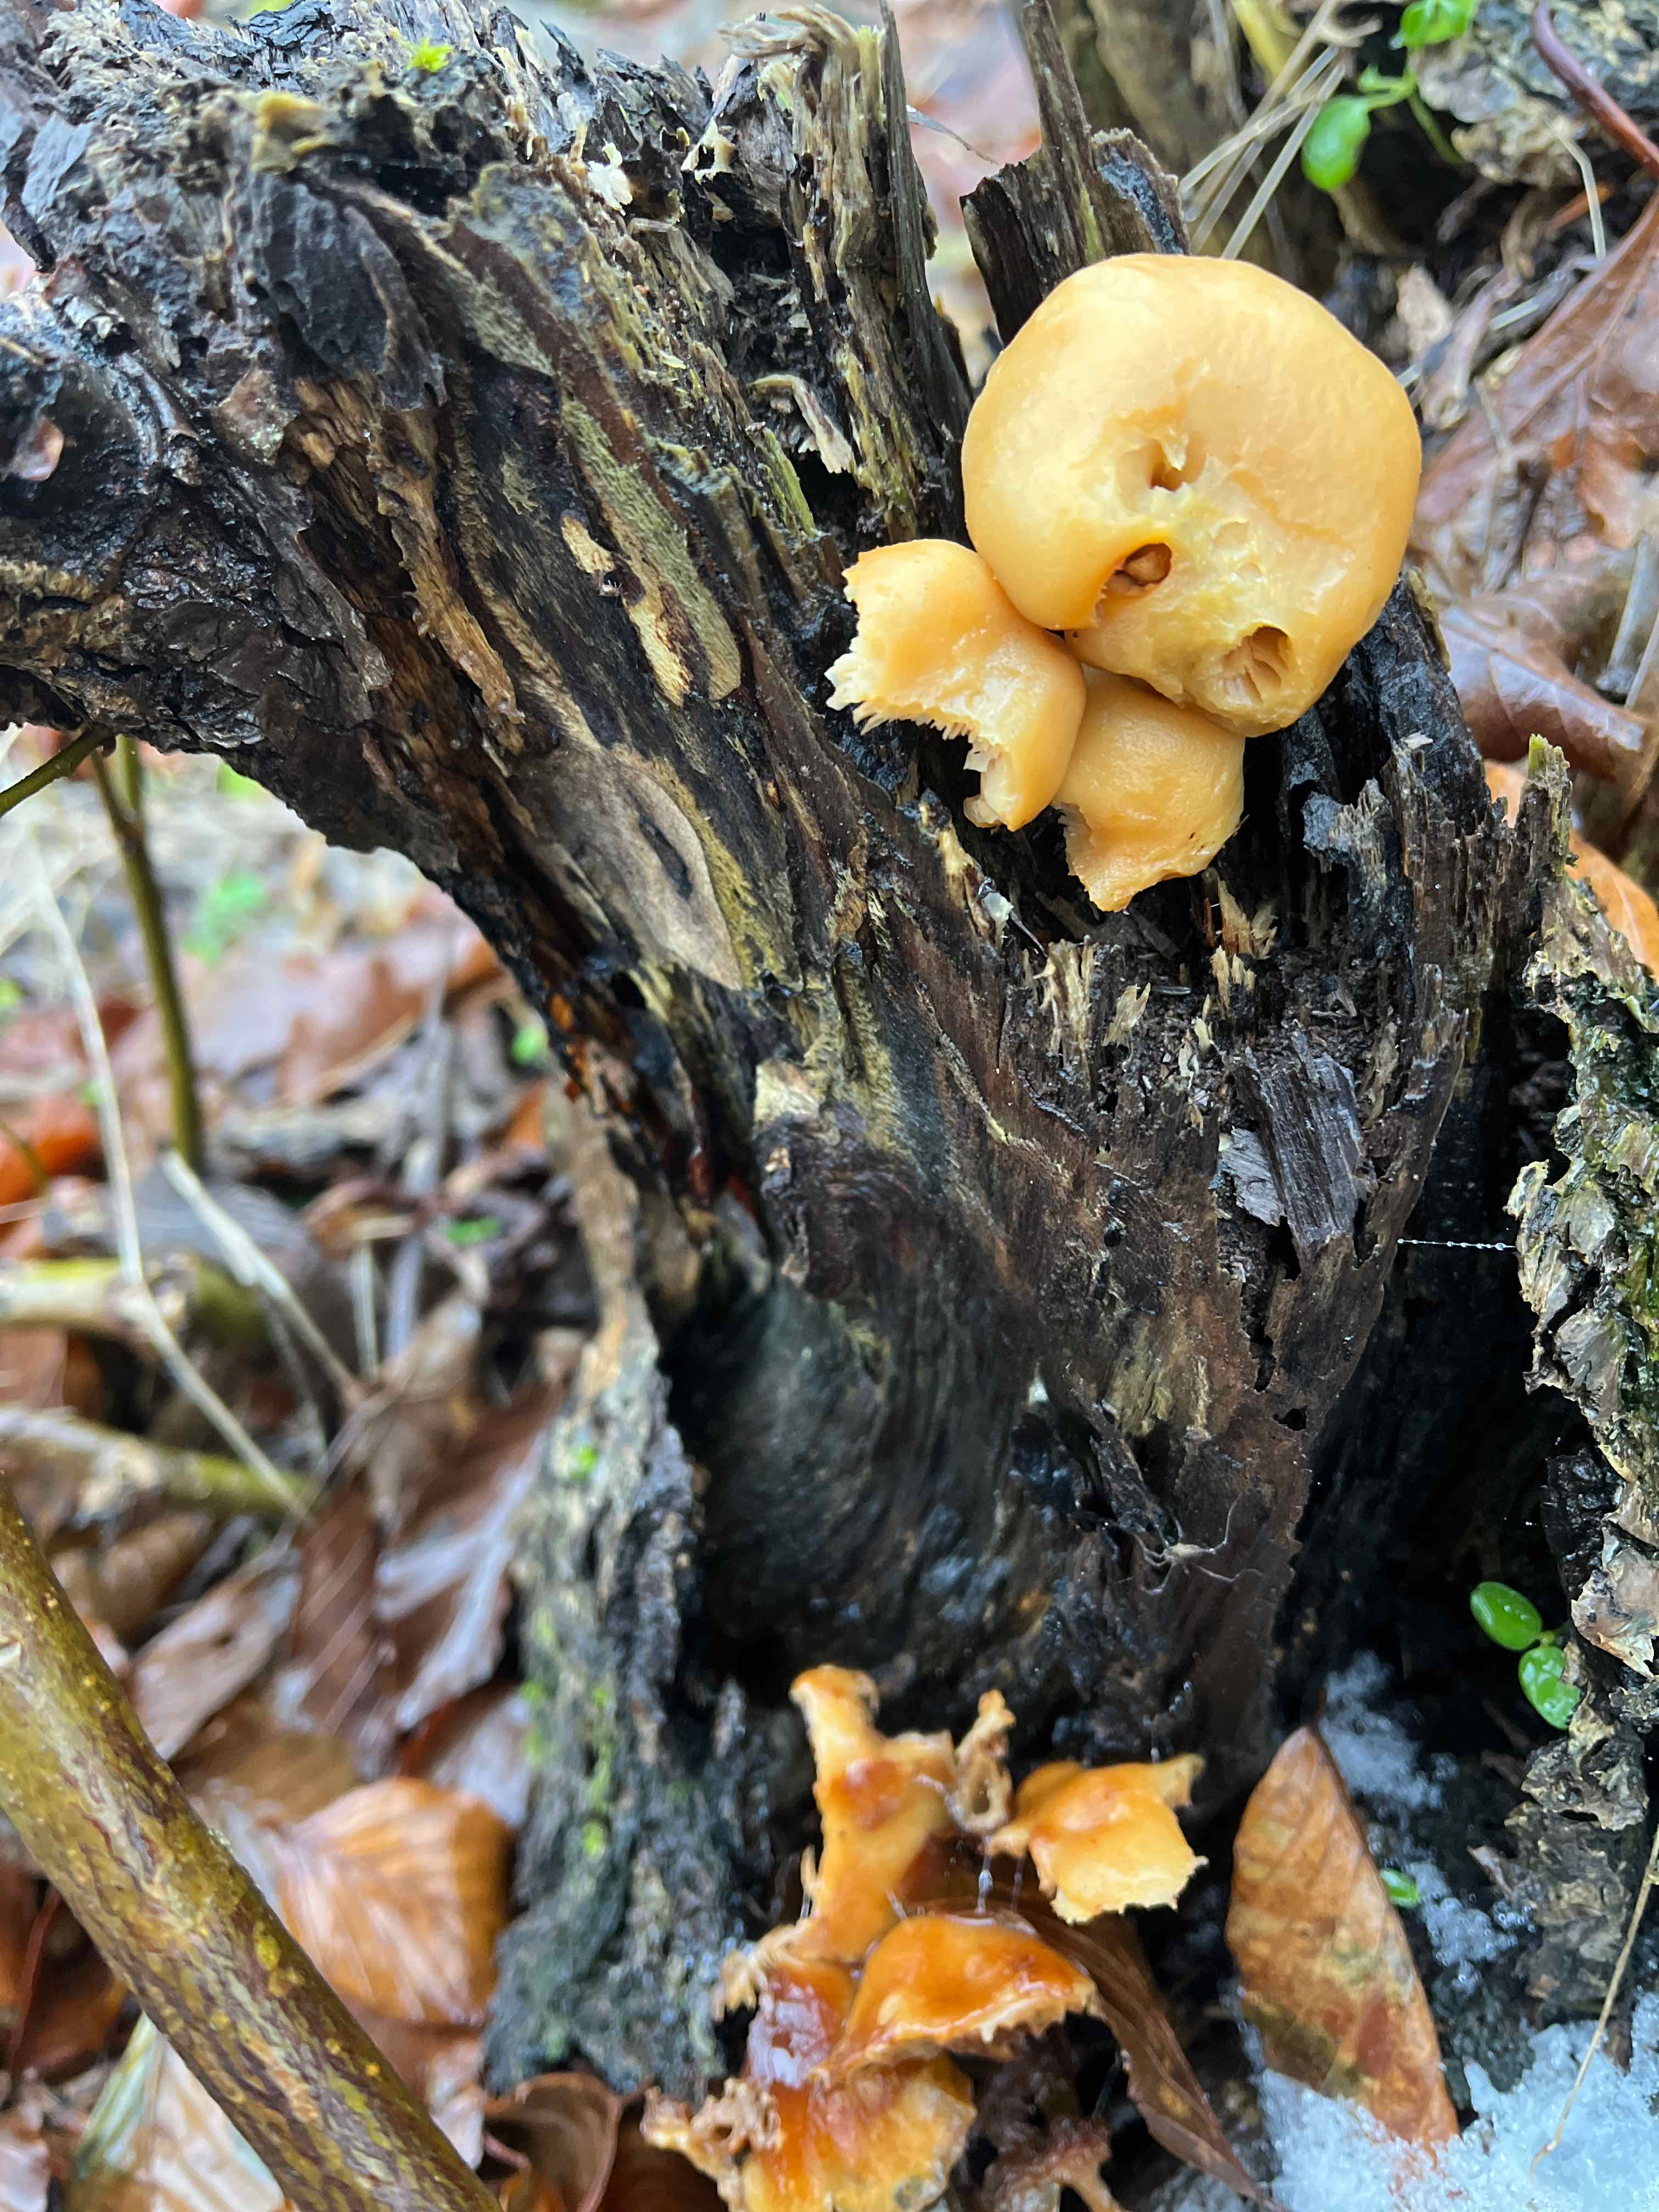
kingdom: Fungi
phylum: Basidiomycota
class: Agaricomycetes
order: Agaricales
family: Physalacriaceae
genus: Flammulina
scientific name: Flammulina
